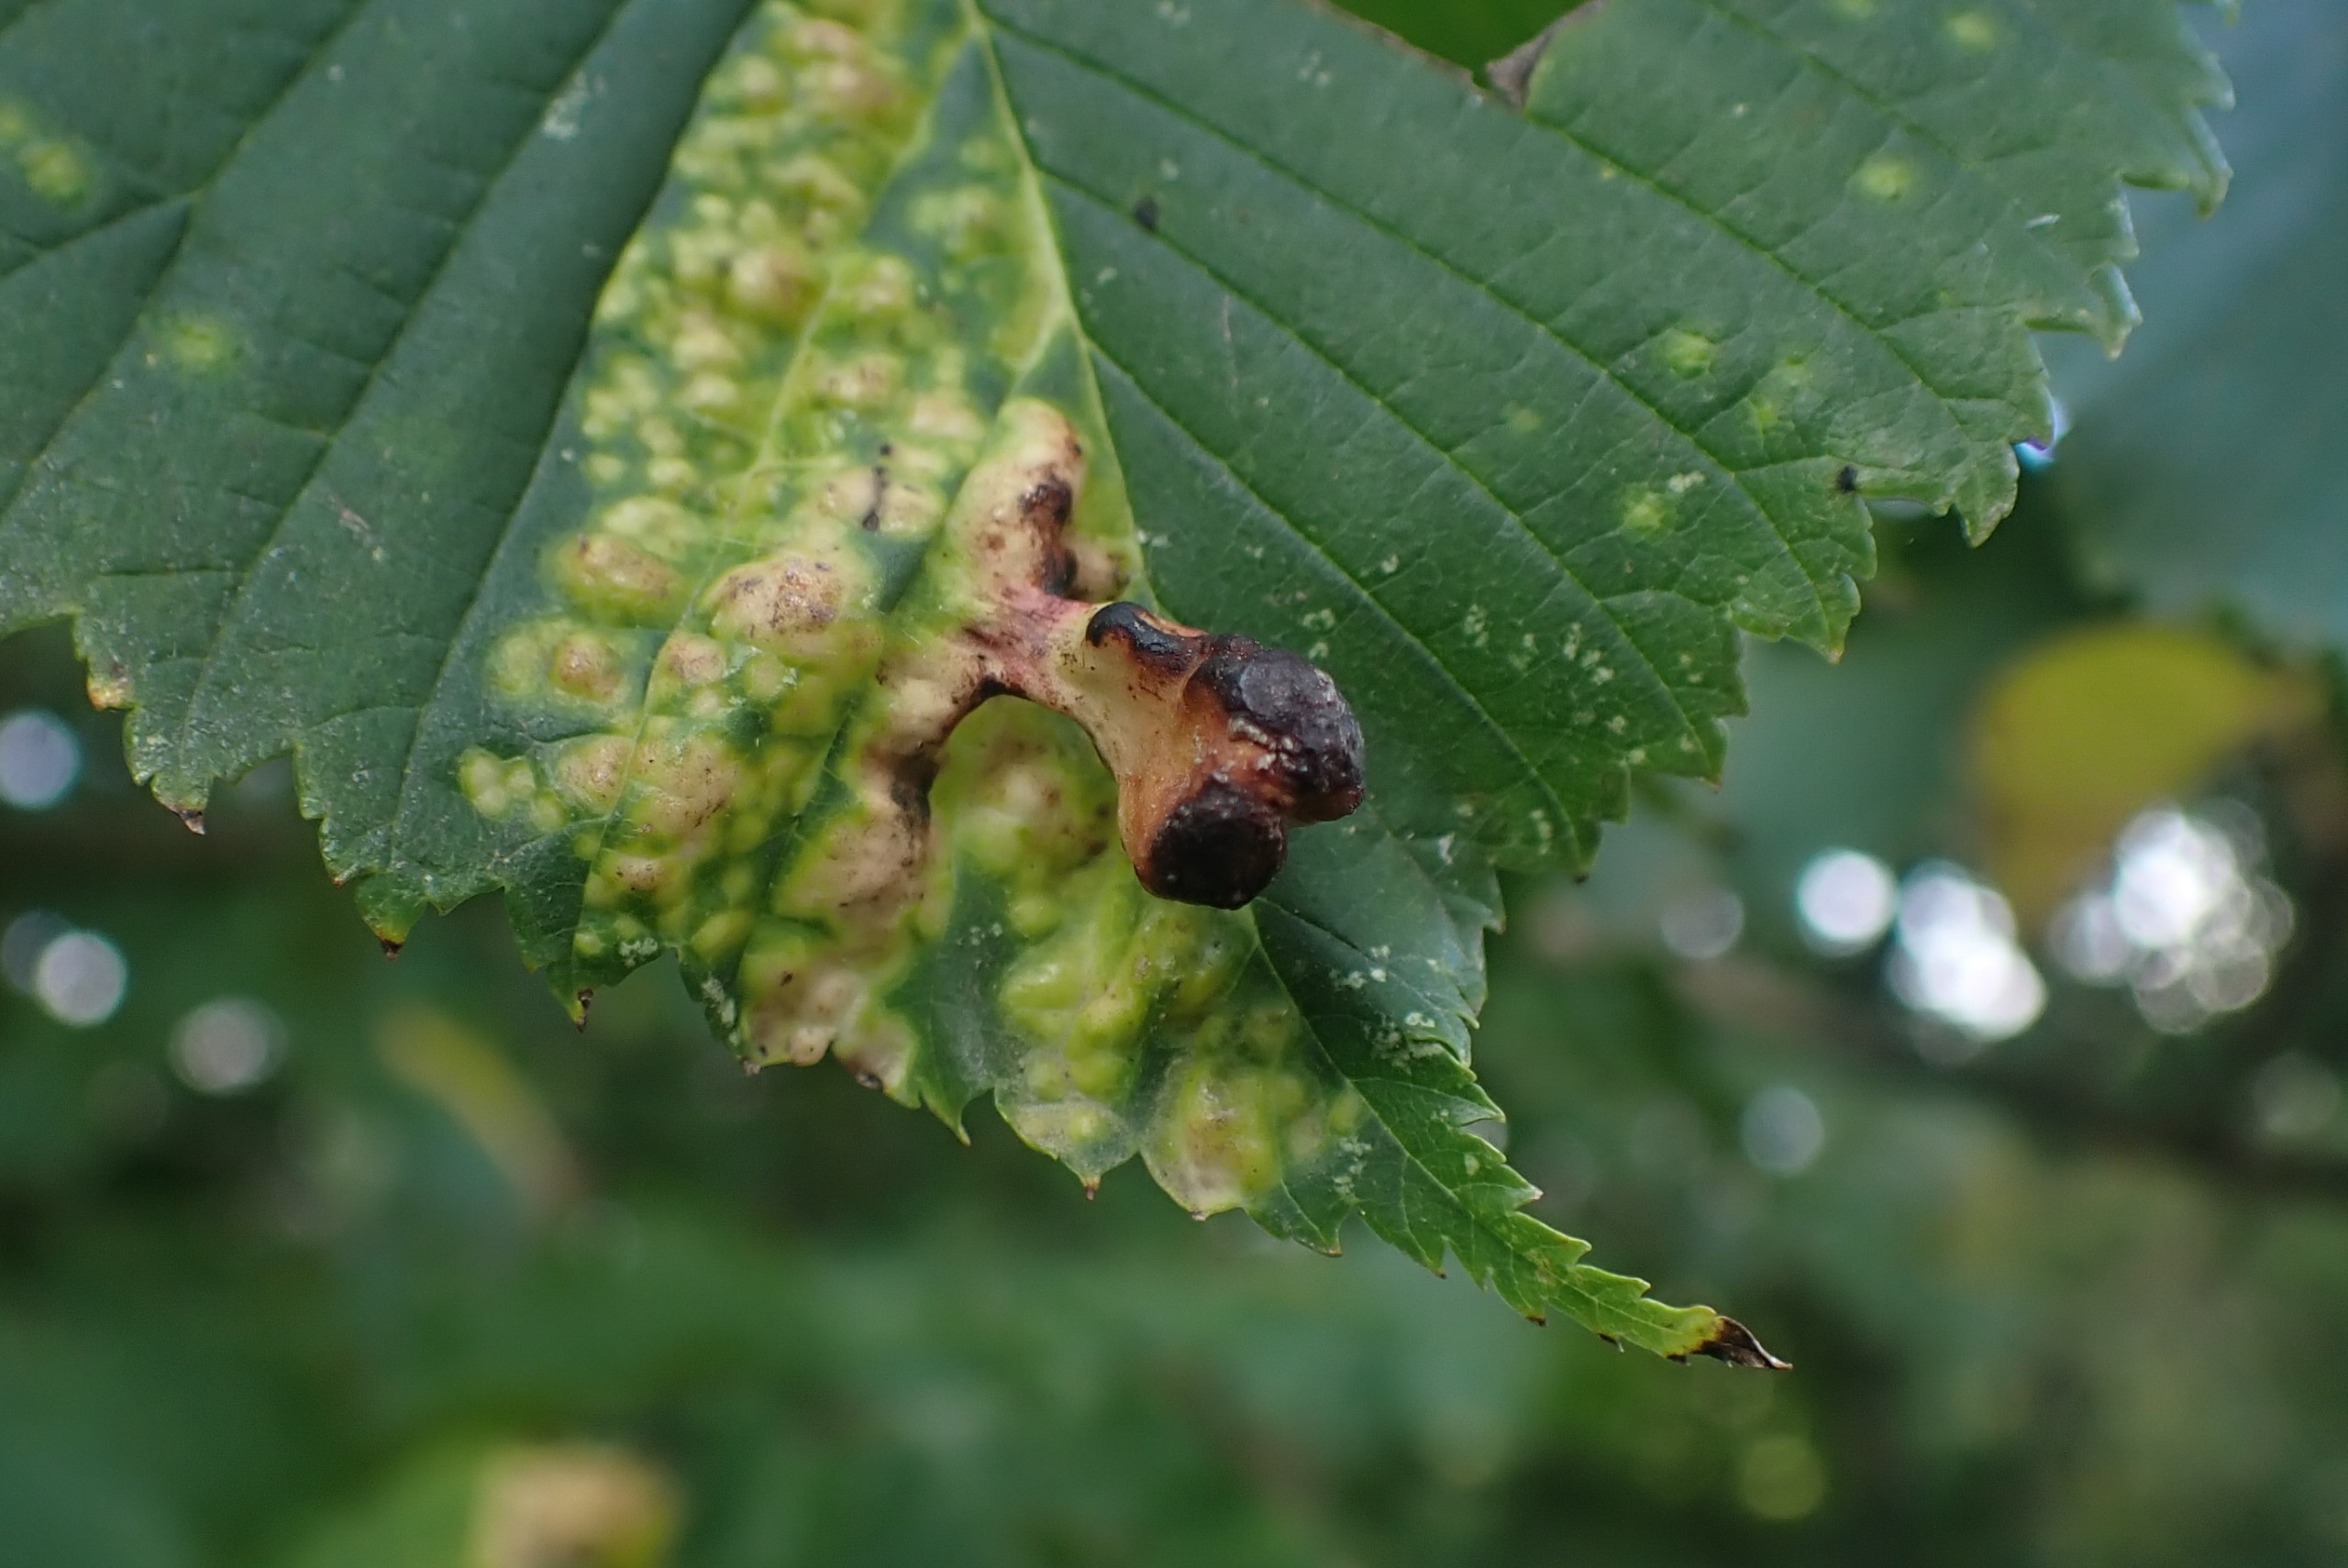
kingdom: Animalia
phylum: Arthropoda
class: Insecta
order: Hemiptera
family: Aphididae
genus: Tetraneura
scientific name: Tetraneura ulmi
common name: Elmegallelus
